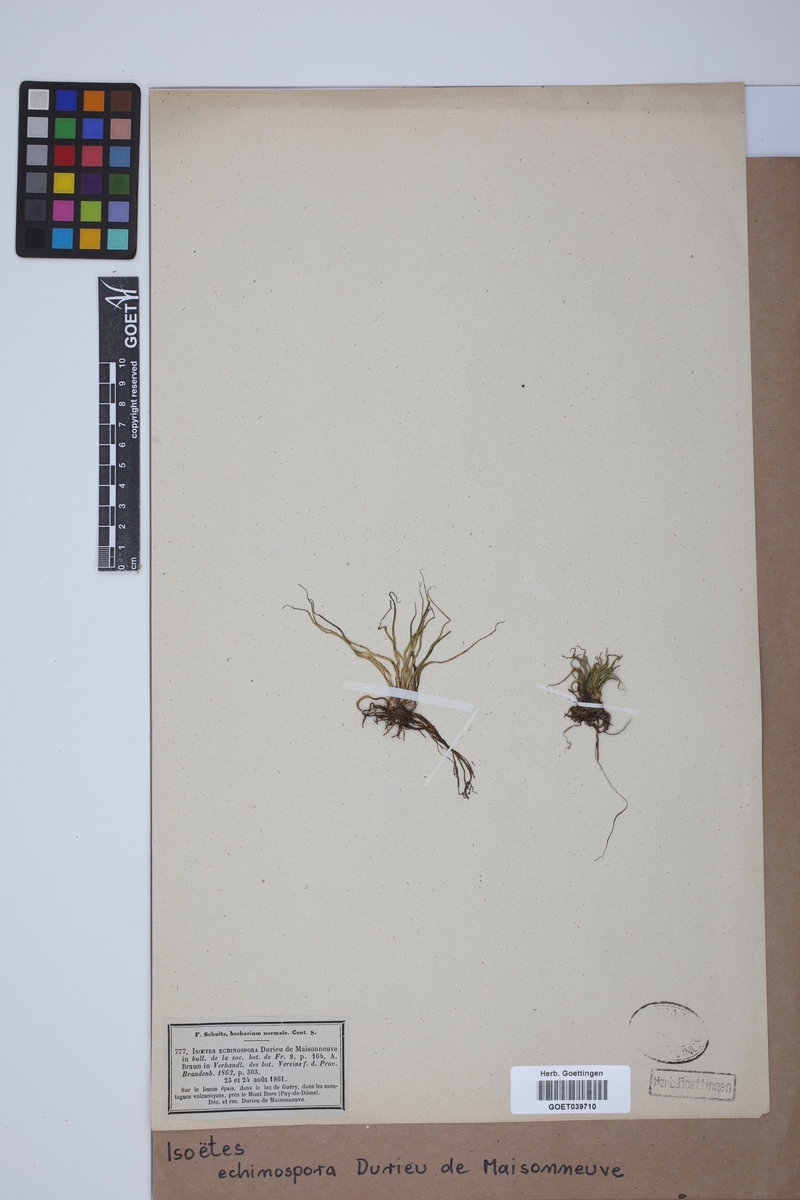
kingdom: Plantae
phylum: Tracheophyta
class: Lycopodiopsida
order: Isoetales
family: Isoetaceae
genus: Isoetes
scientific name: Isoetes echinospora
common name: Spring quillwort
